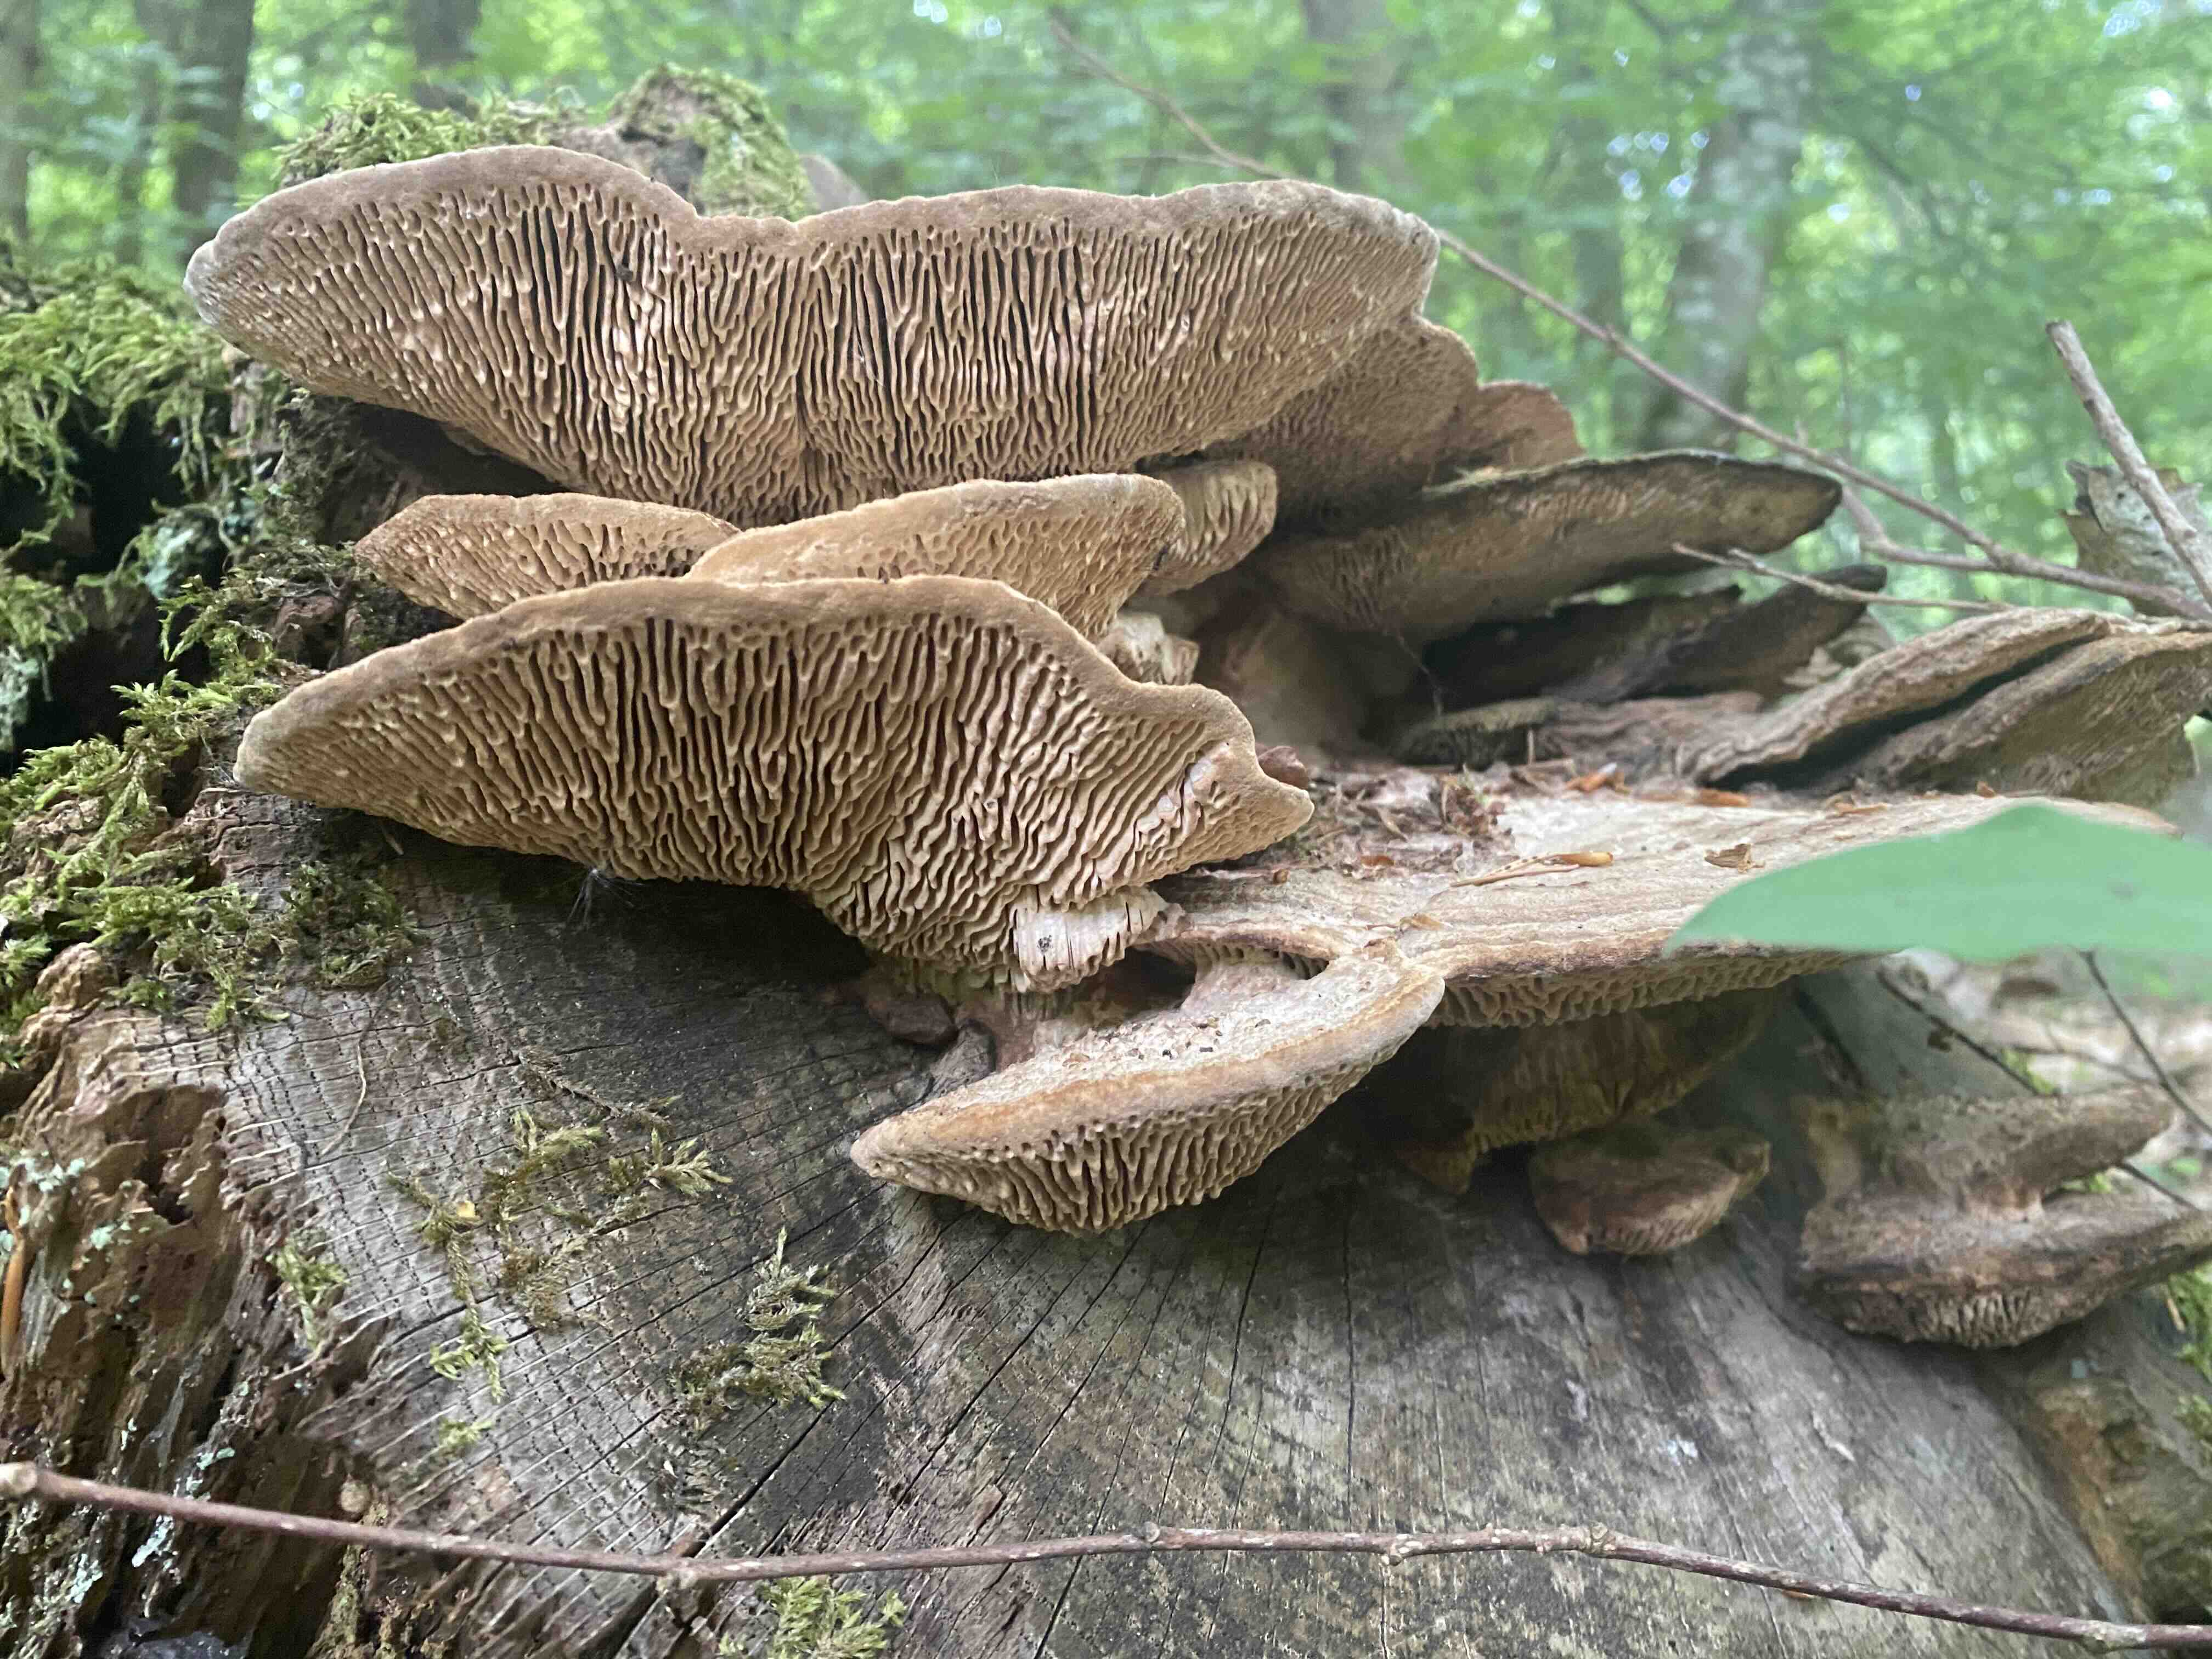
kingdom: Fungi
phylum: Basidiomycota
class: Agaricomycetes
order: Polyporales
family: Fomitopsidaceae
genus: Daedalea
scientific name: Daedalea quercina
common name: ege-labyrintsvamp
